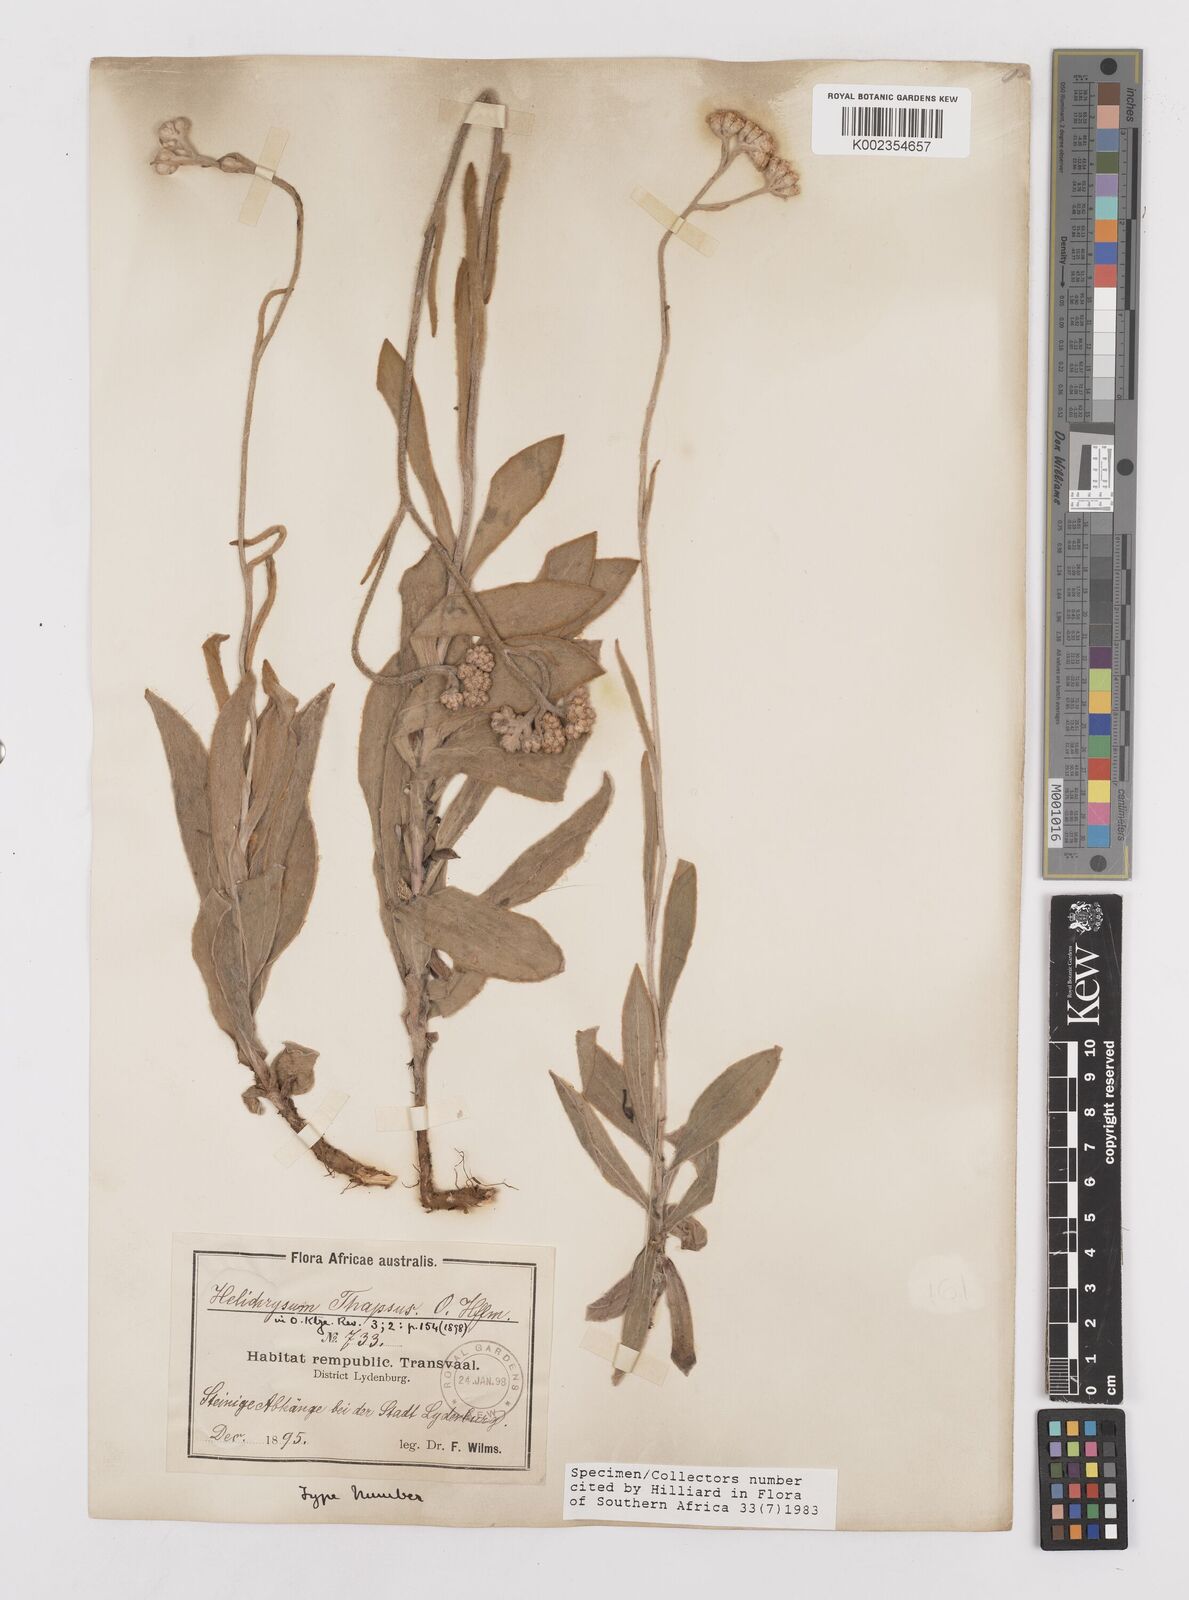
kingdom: Plantae
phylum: Tracheophyta
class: Magnoliopsida
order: Asterales
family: Asteraceae
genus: Helichrysum
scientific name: Helichrysum thapsus
